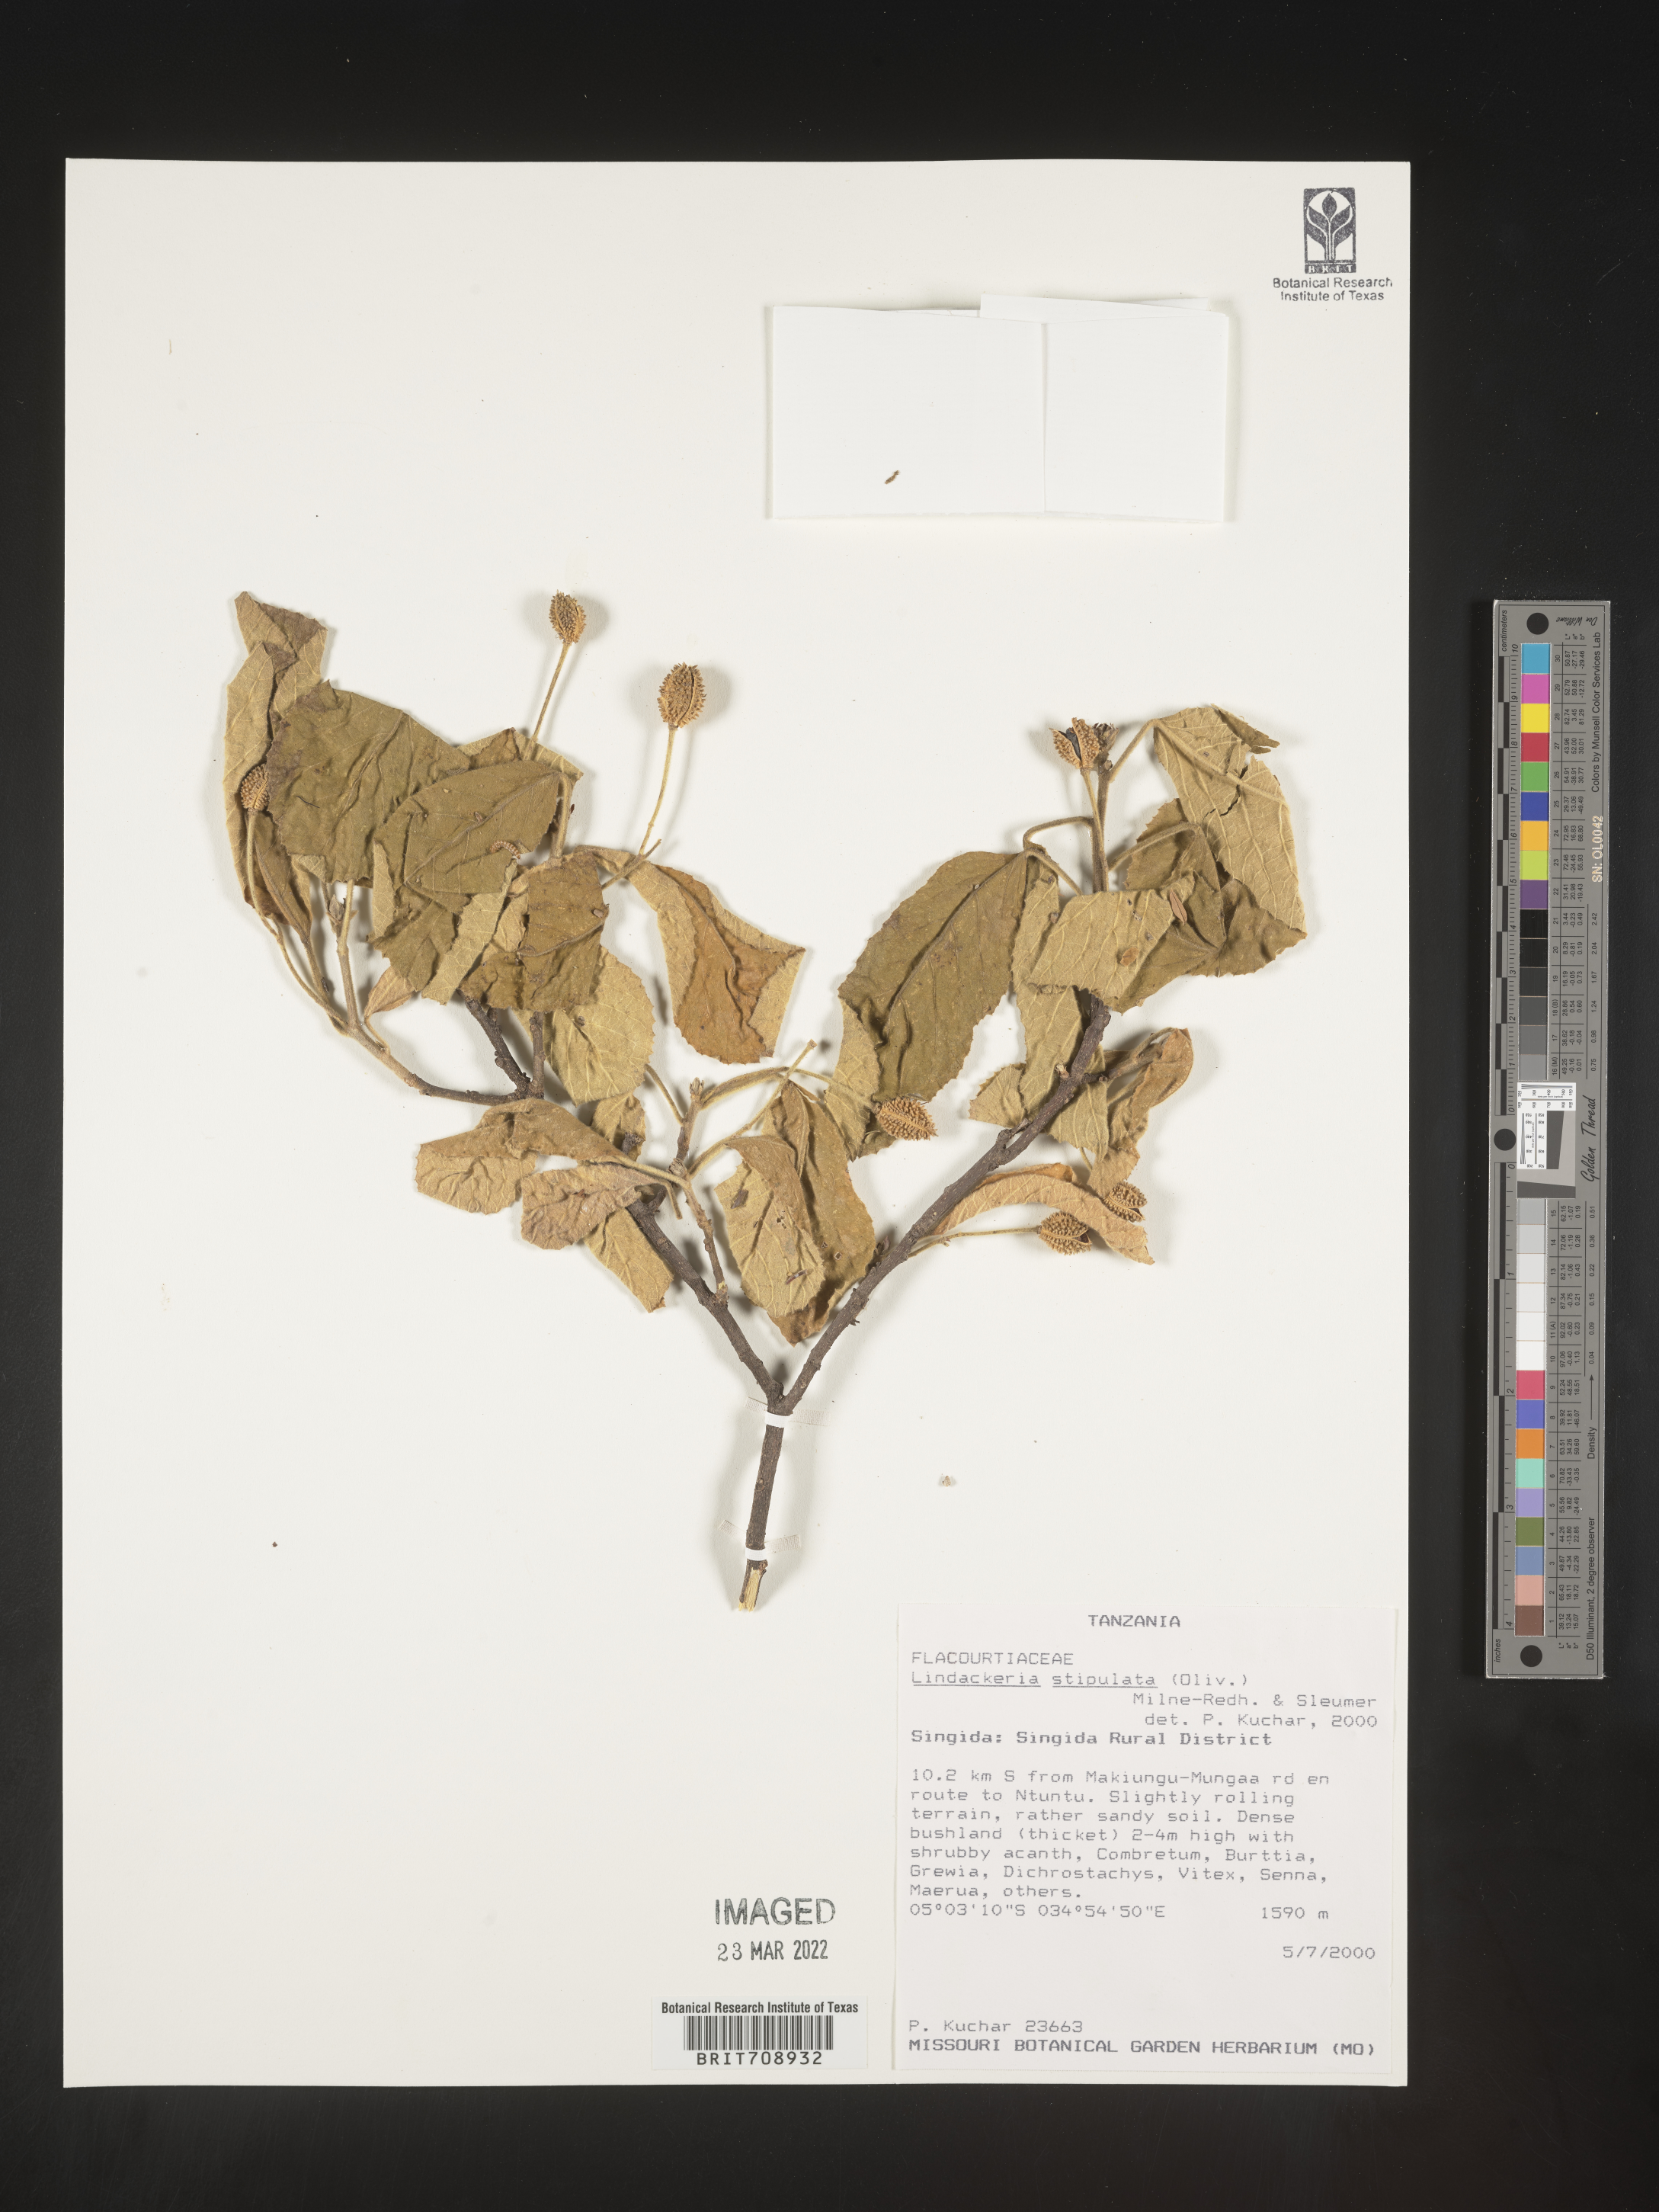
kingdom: Plantae
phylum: Tracheophyta
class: Magnoliopsida
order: Malpighiales
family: Achariaceae
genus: Lindackeria
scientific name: Lindackeria
